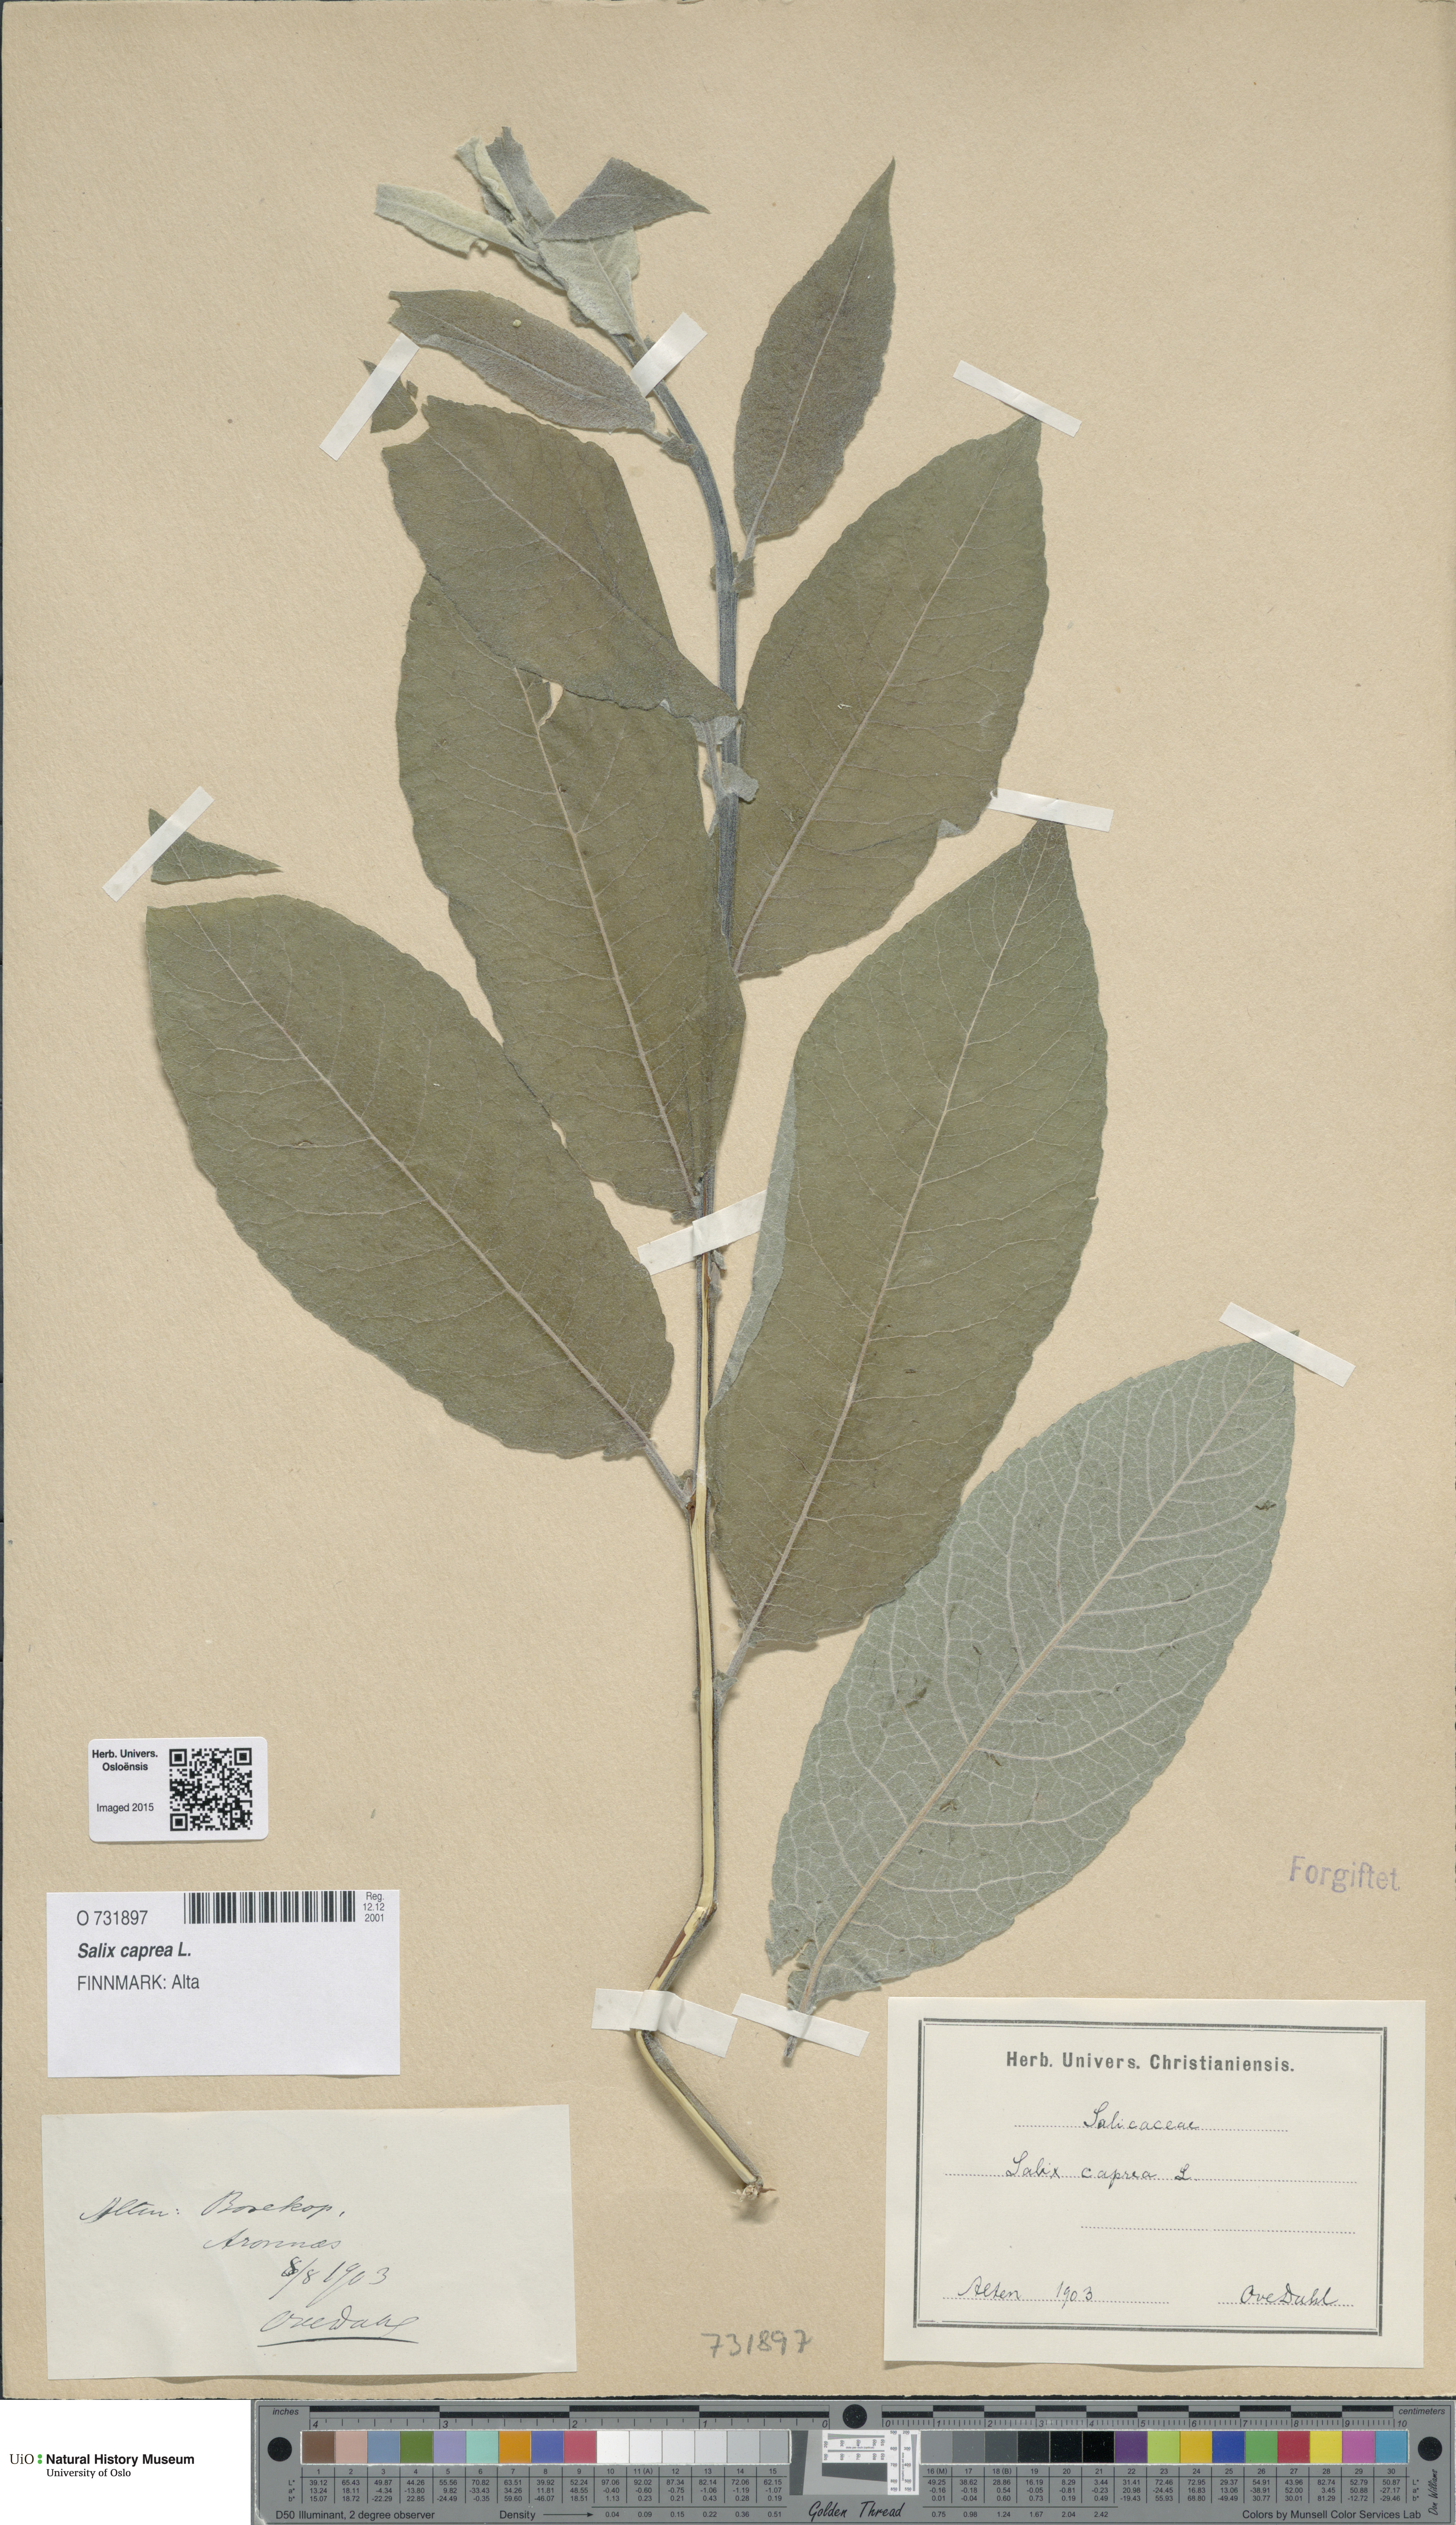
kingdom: Plantae
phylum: Tracheophyta
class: Magnoliopsida
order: Malpighiales
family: Salicaceae
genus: Salix
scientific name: Salix caprea
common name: Goat willow
